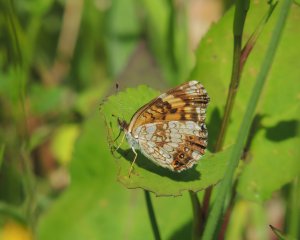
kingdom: Animalia
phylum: Arthropoda
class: Insecta
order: Lepidoptera
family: Nymphalidae
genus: Chlosyne
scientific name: Chlosyne nycteis
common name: Silvery Checkerspot
